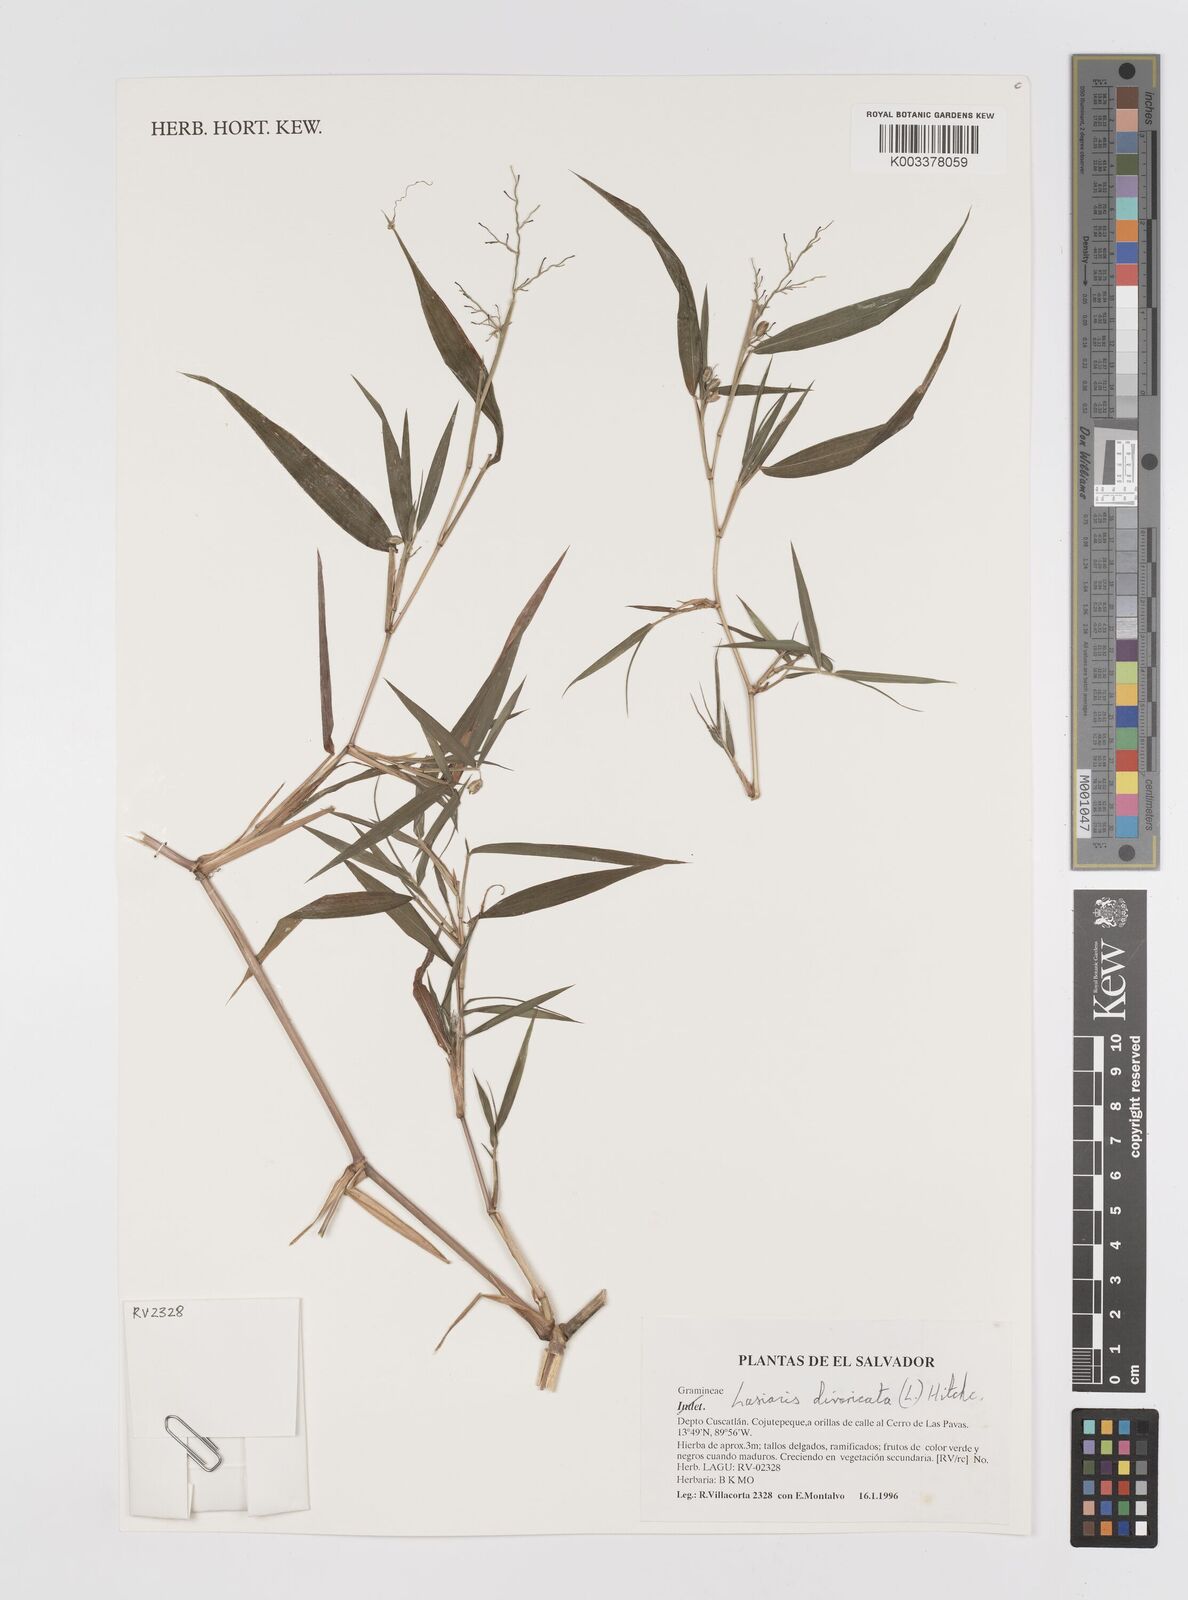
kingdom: Plantae
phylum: Tracheophyta
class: Liliopsida
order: Poales
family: Poaceae
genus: Lasiacis
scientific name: Lasiacis divaricata
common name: Smallcane
